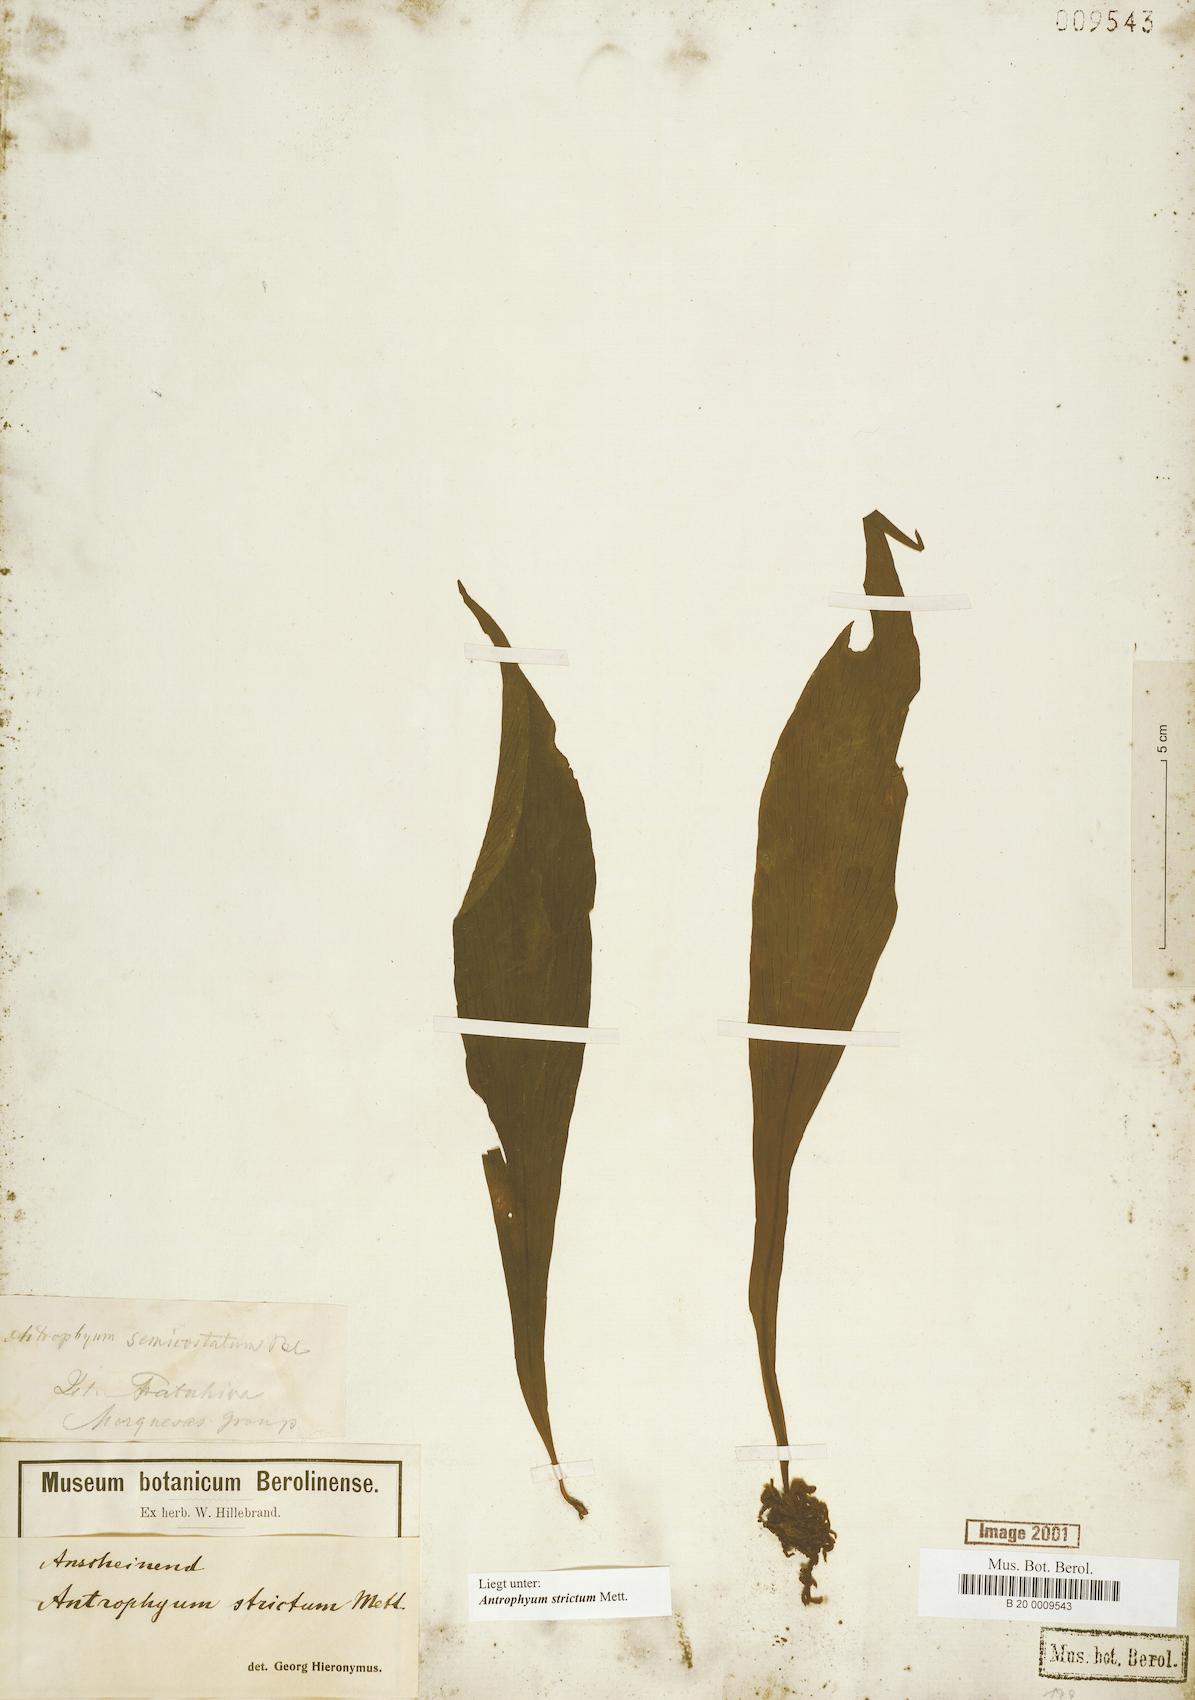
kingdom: Plantae
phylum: Tracheophyta
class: Polypodiopsida
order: Polypodiales
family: Pteridaceae
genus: Antrophyum
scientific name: Antrophyum strictum
